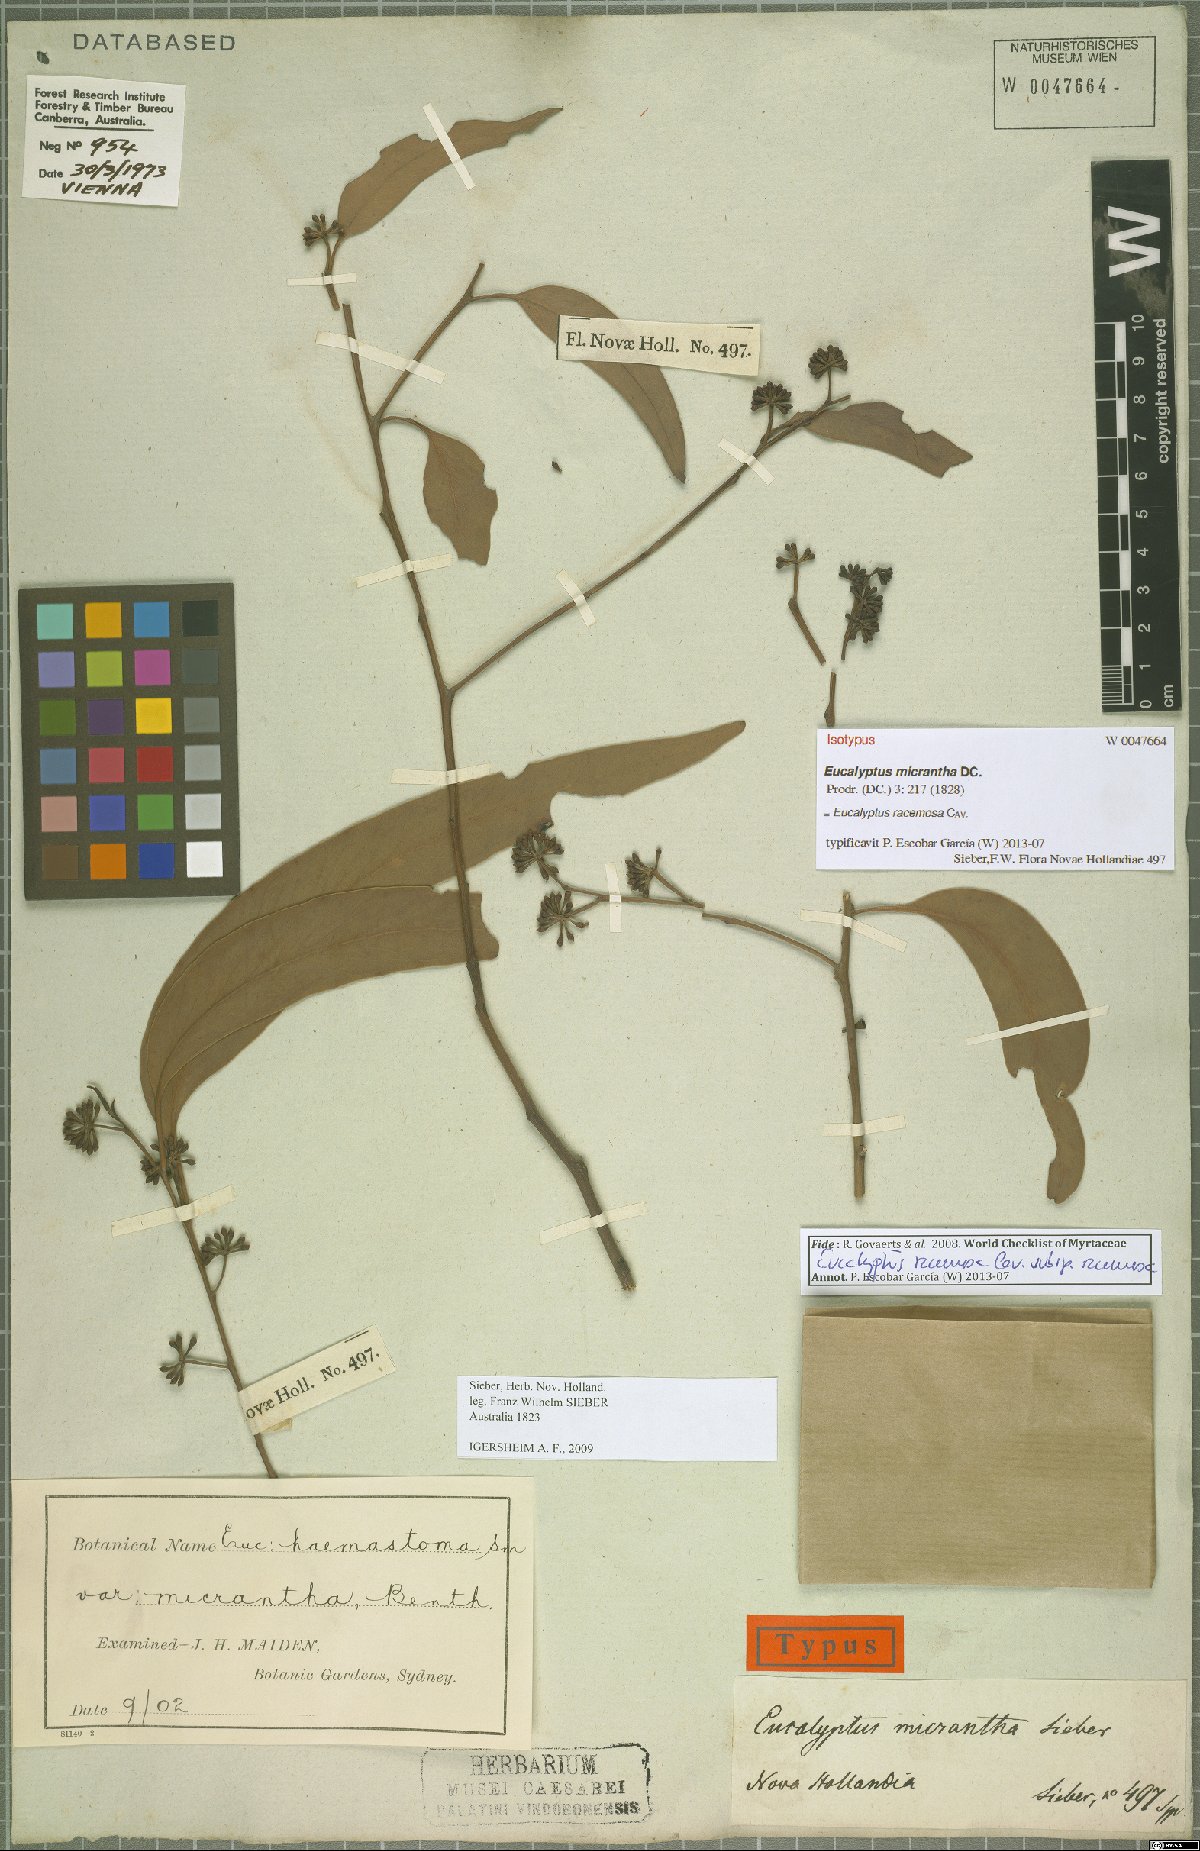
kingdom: Plantae
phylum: Tracheophyta
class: Magnoliopsida
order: Myrtales
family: Myrtaceae
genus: Eucalyptus
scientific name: Eucalyptus racemosa
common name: Scribbly gum
